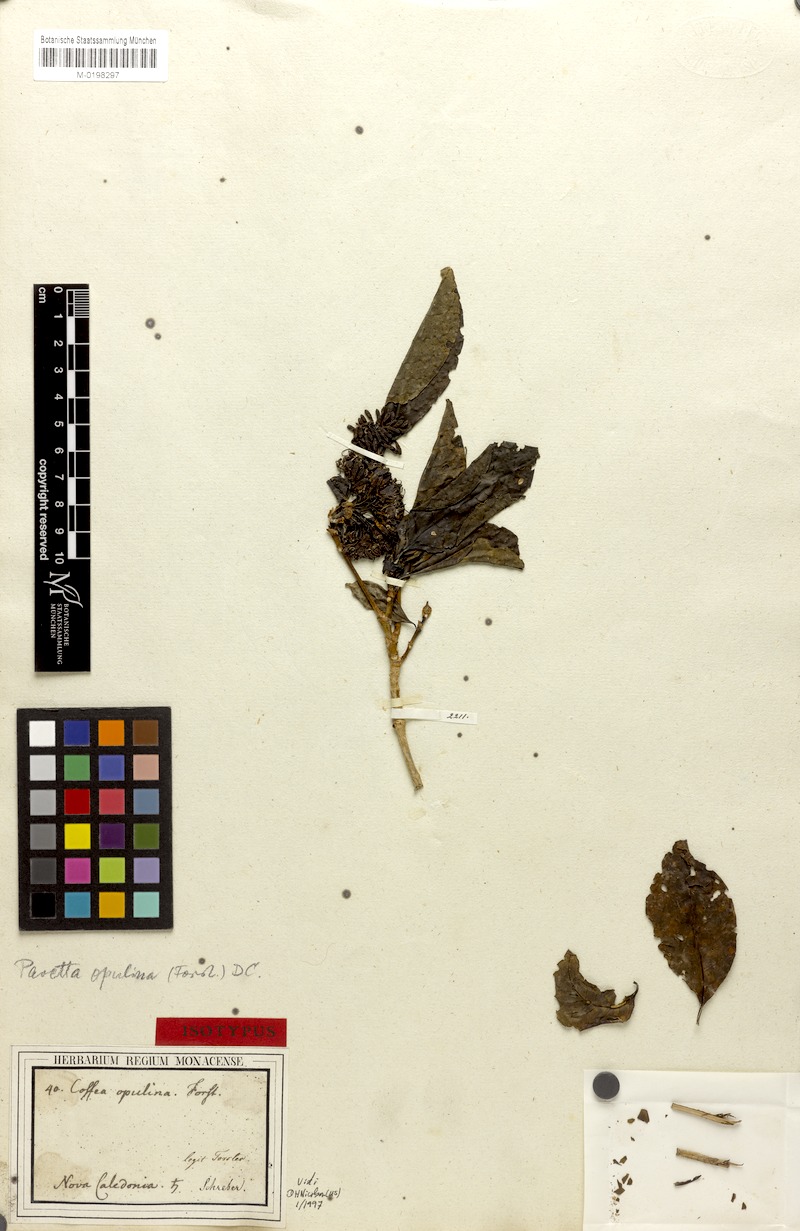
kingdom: Plantae
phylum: Tracheophyta
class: Magnoliopsida
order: Gentianales
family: Rubiaceae
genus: Pavetta
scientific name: Pavetta opulina
